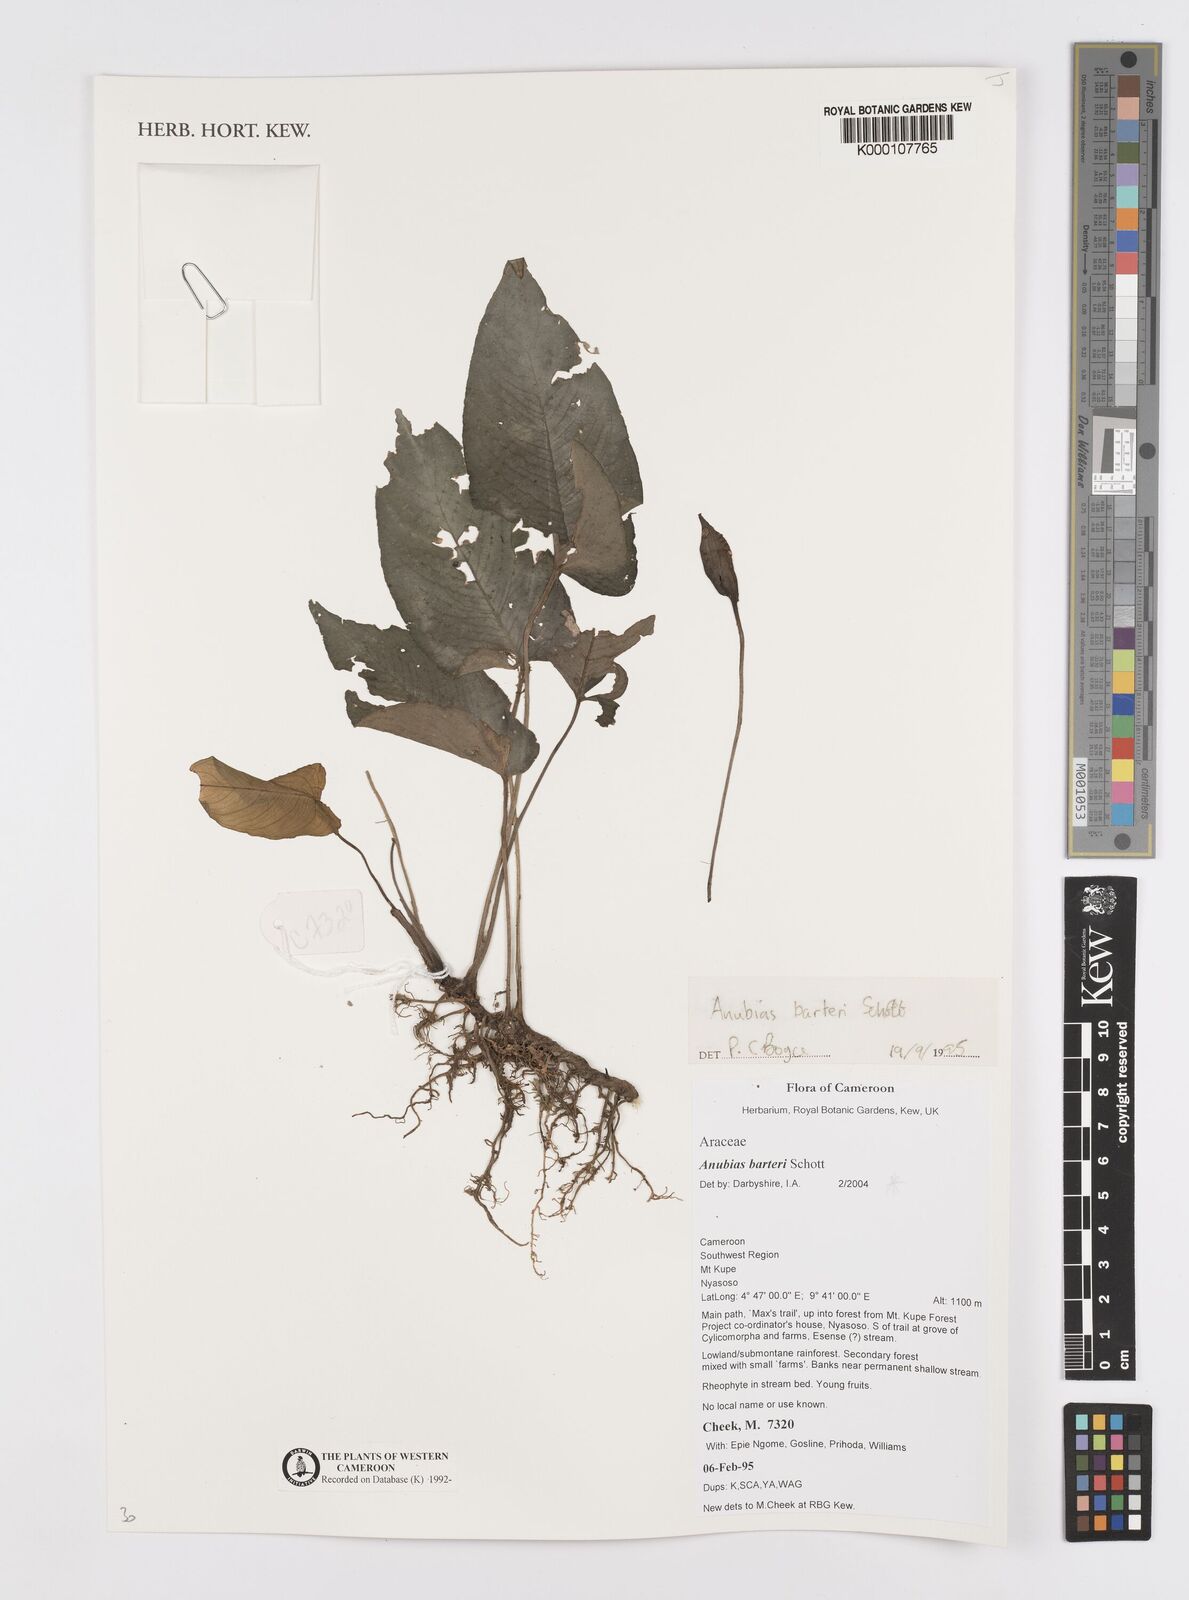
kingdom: Plantae
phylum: Tracheophyta
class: Liliopsida
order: Alismatales
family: Araceae
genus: Anubias
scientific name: Anubias barteri
